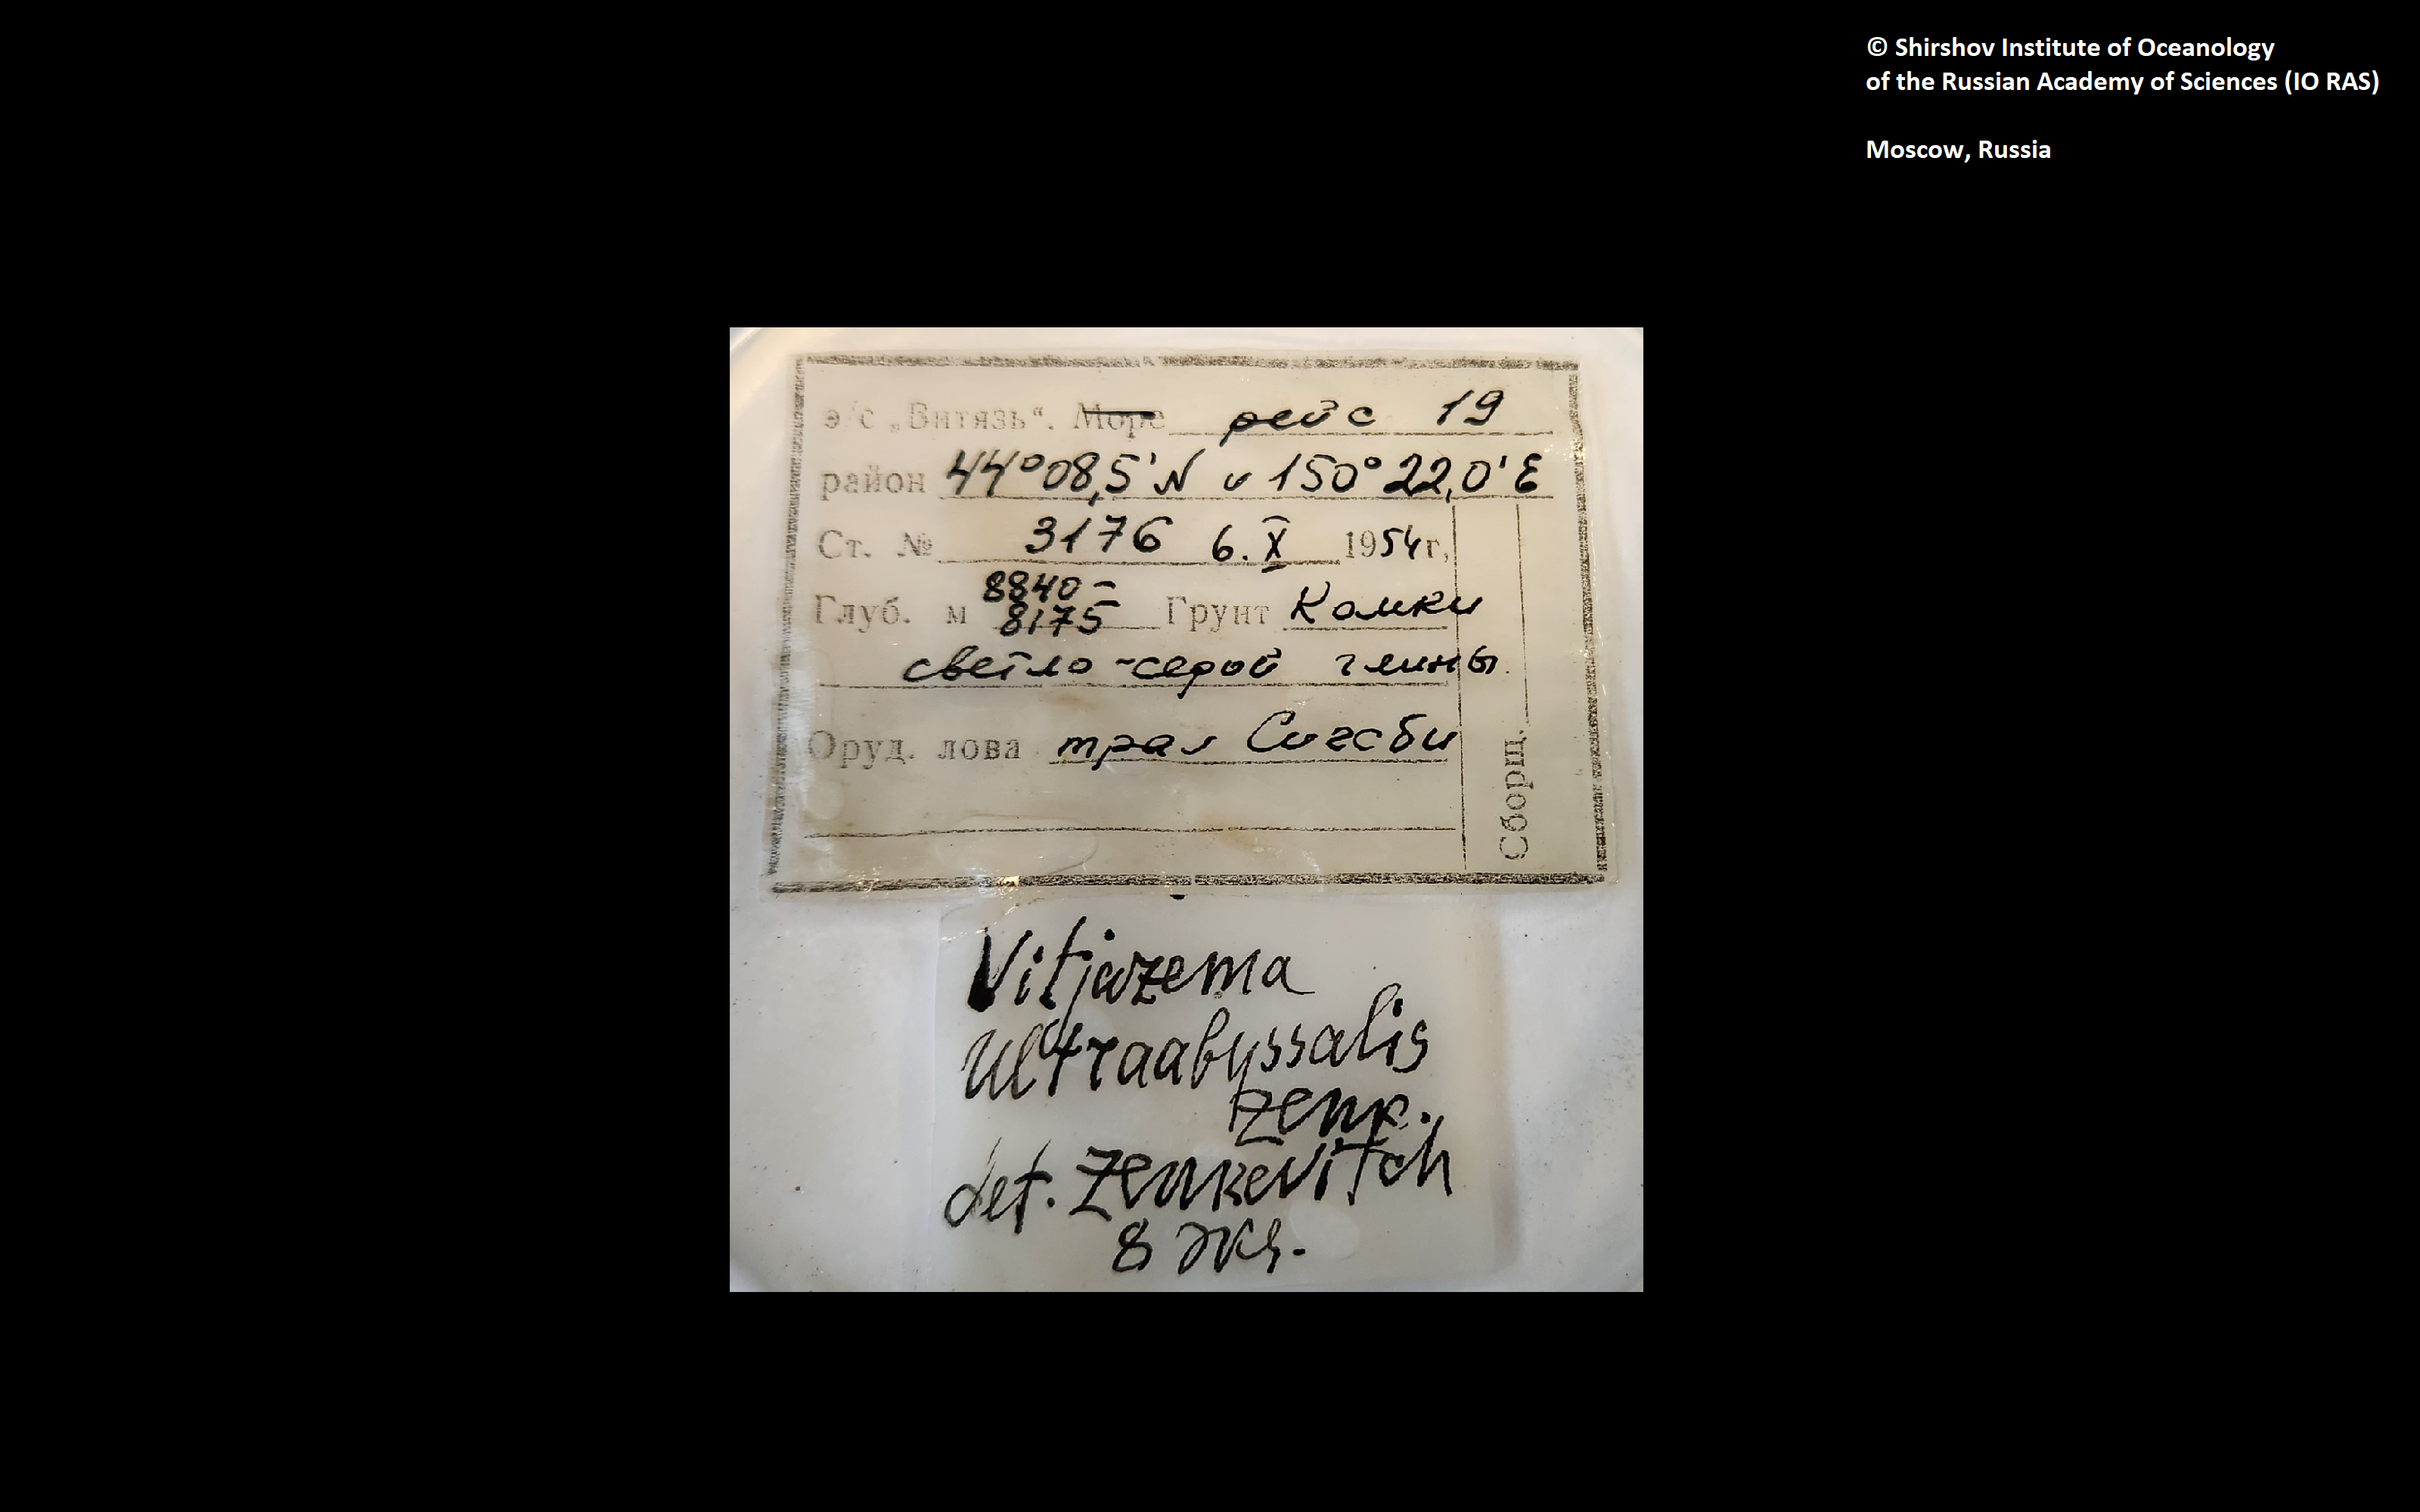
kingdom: Animalia
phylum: Annelida
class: Polychaeta
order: Echiuroidea
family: Bonelliidae
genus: Vitjazema
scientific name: Vitjazema ultraabyssalis
